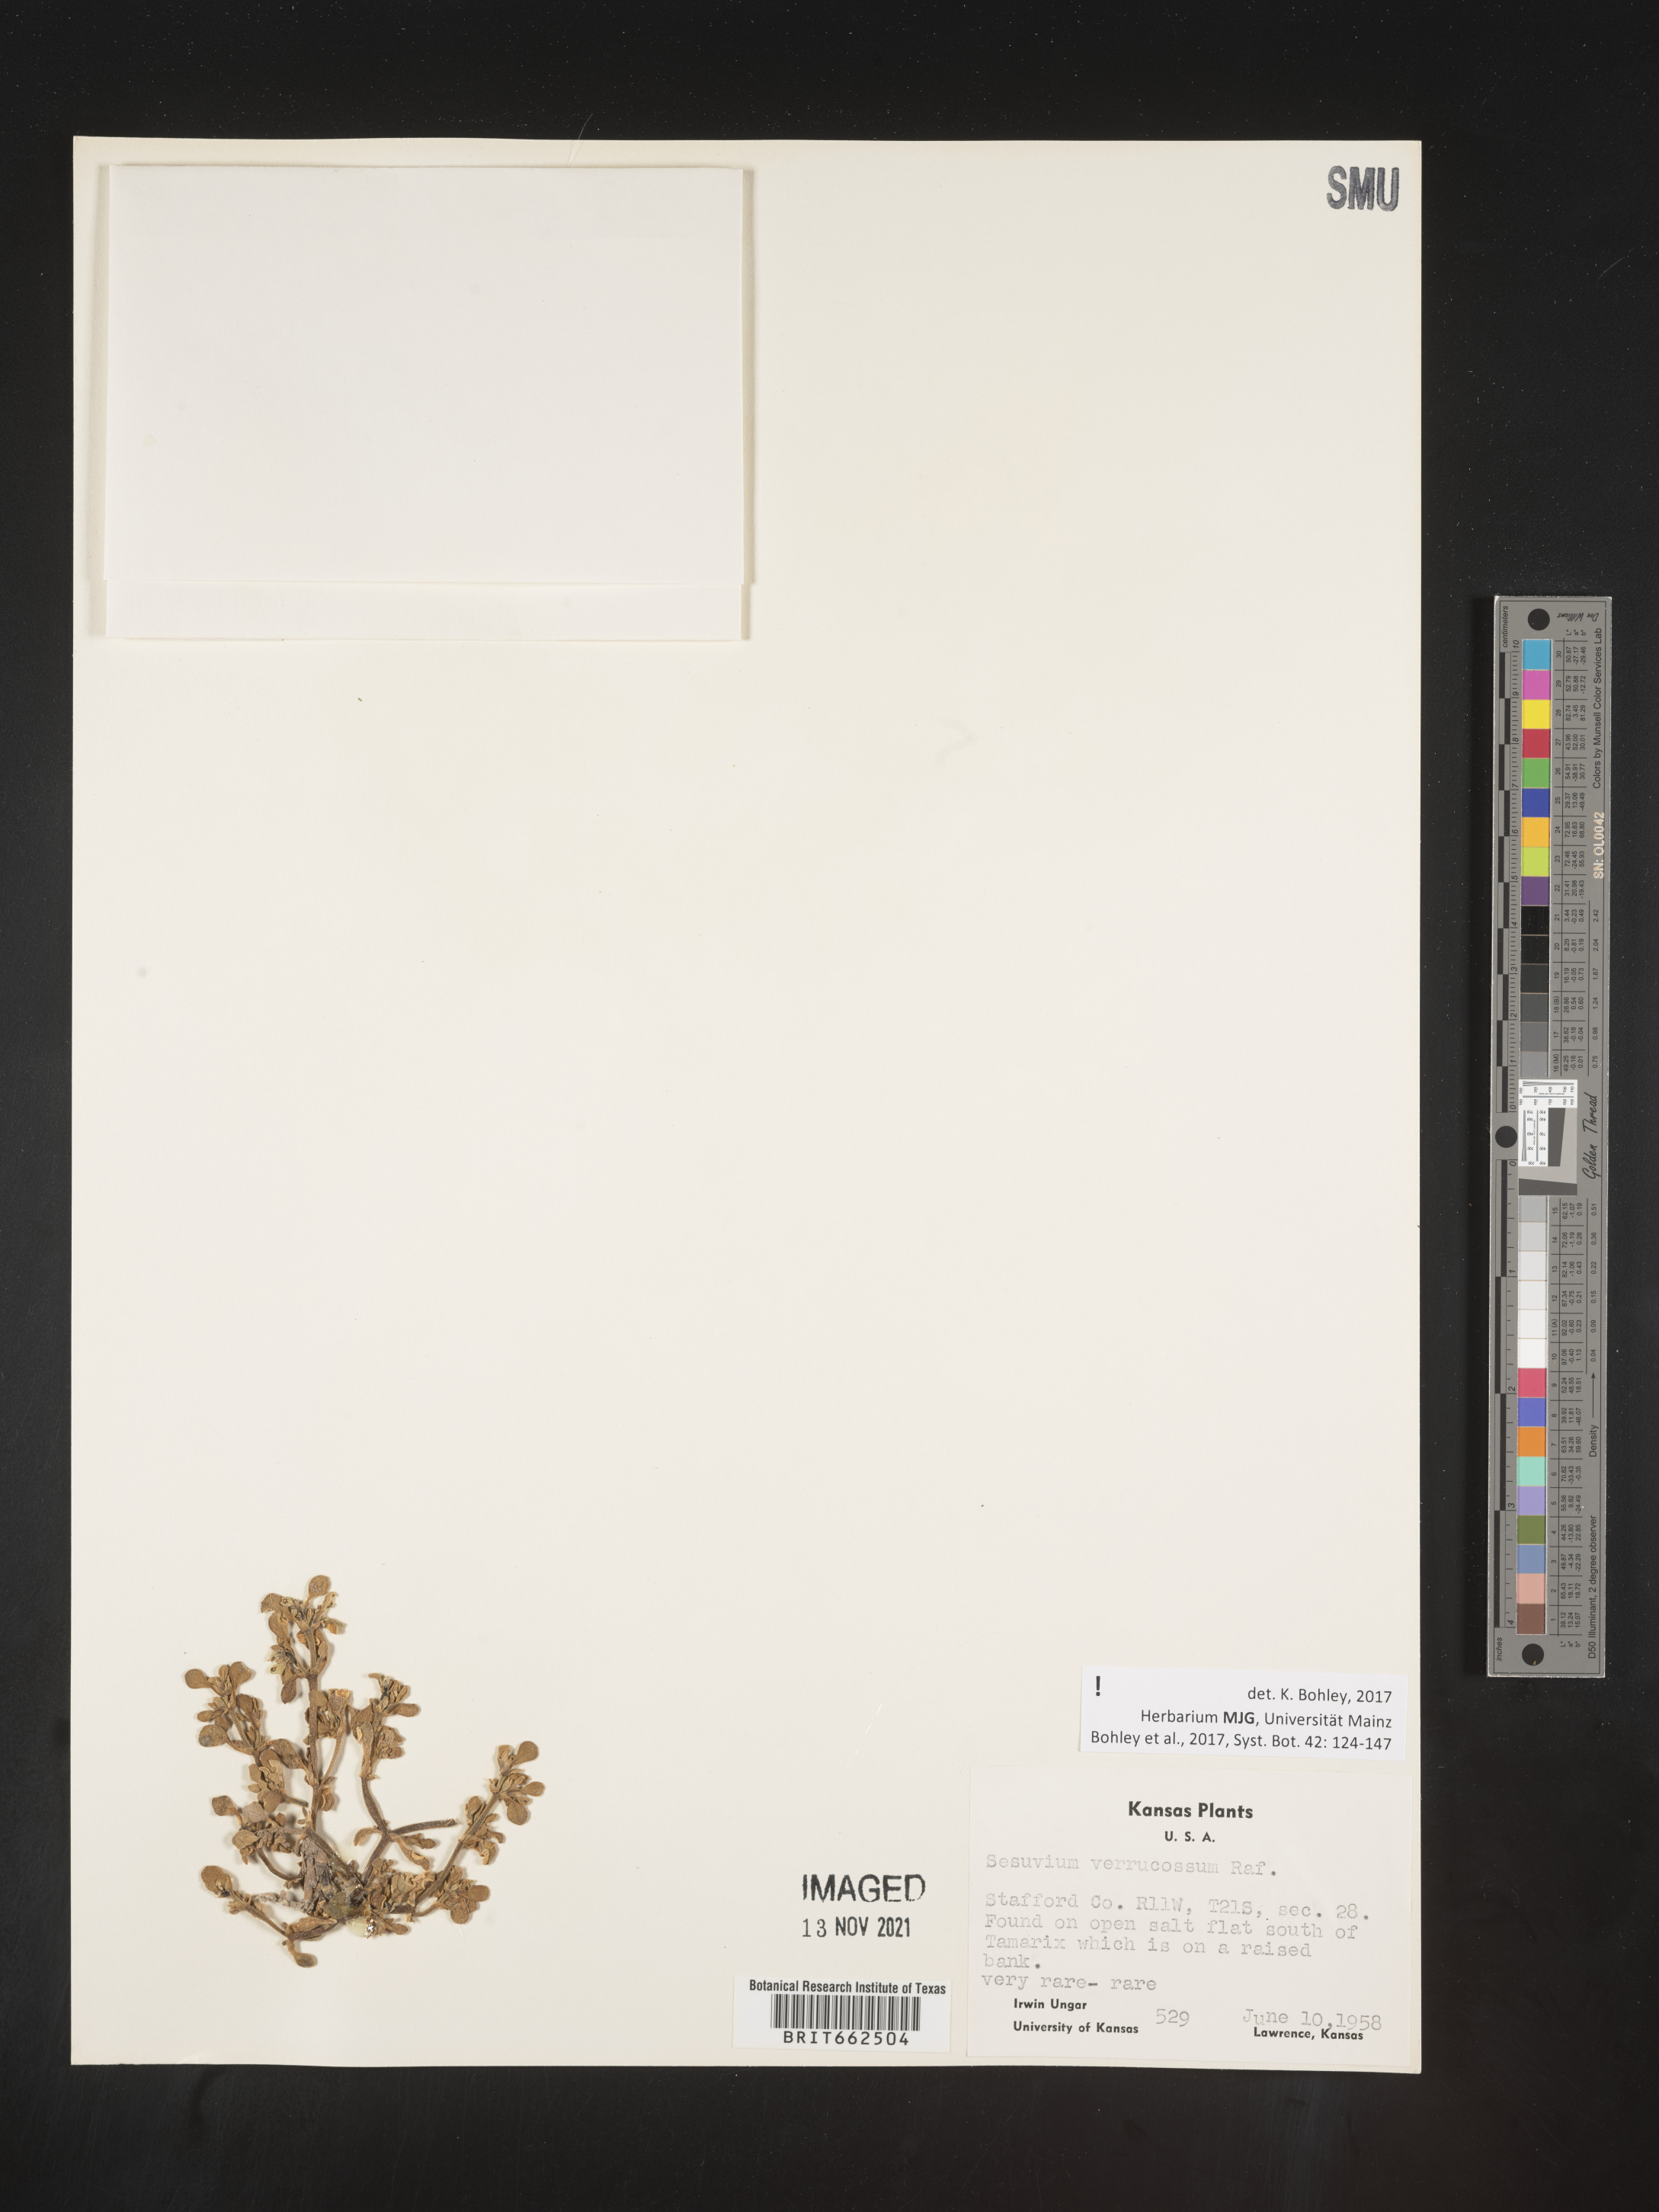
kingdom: Plantae
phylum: Tracheophyta
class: Magnoliopsida
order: Caryophyllales
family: Aizoaceae
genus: Sesuvium
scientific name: Sesuvium
